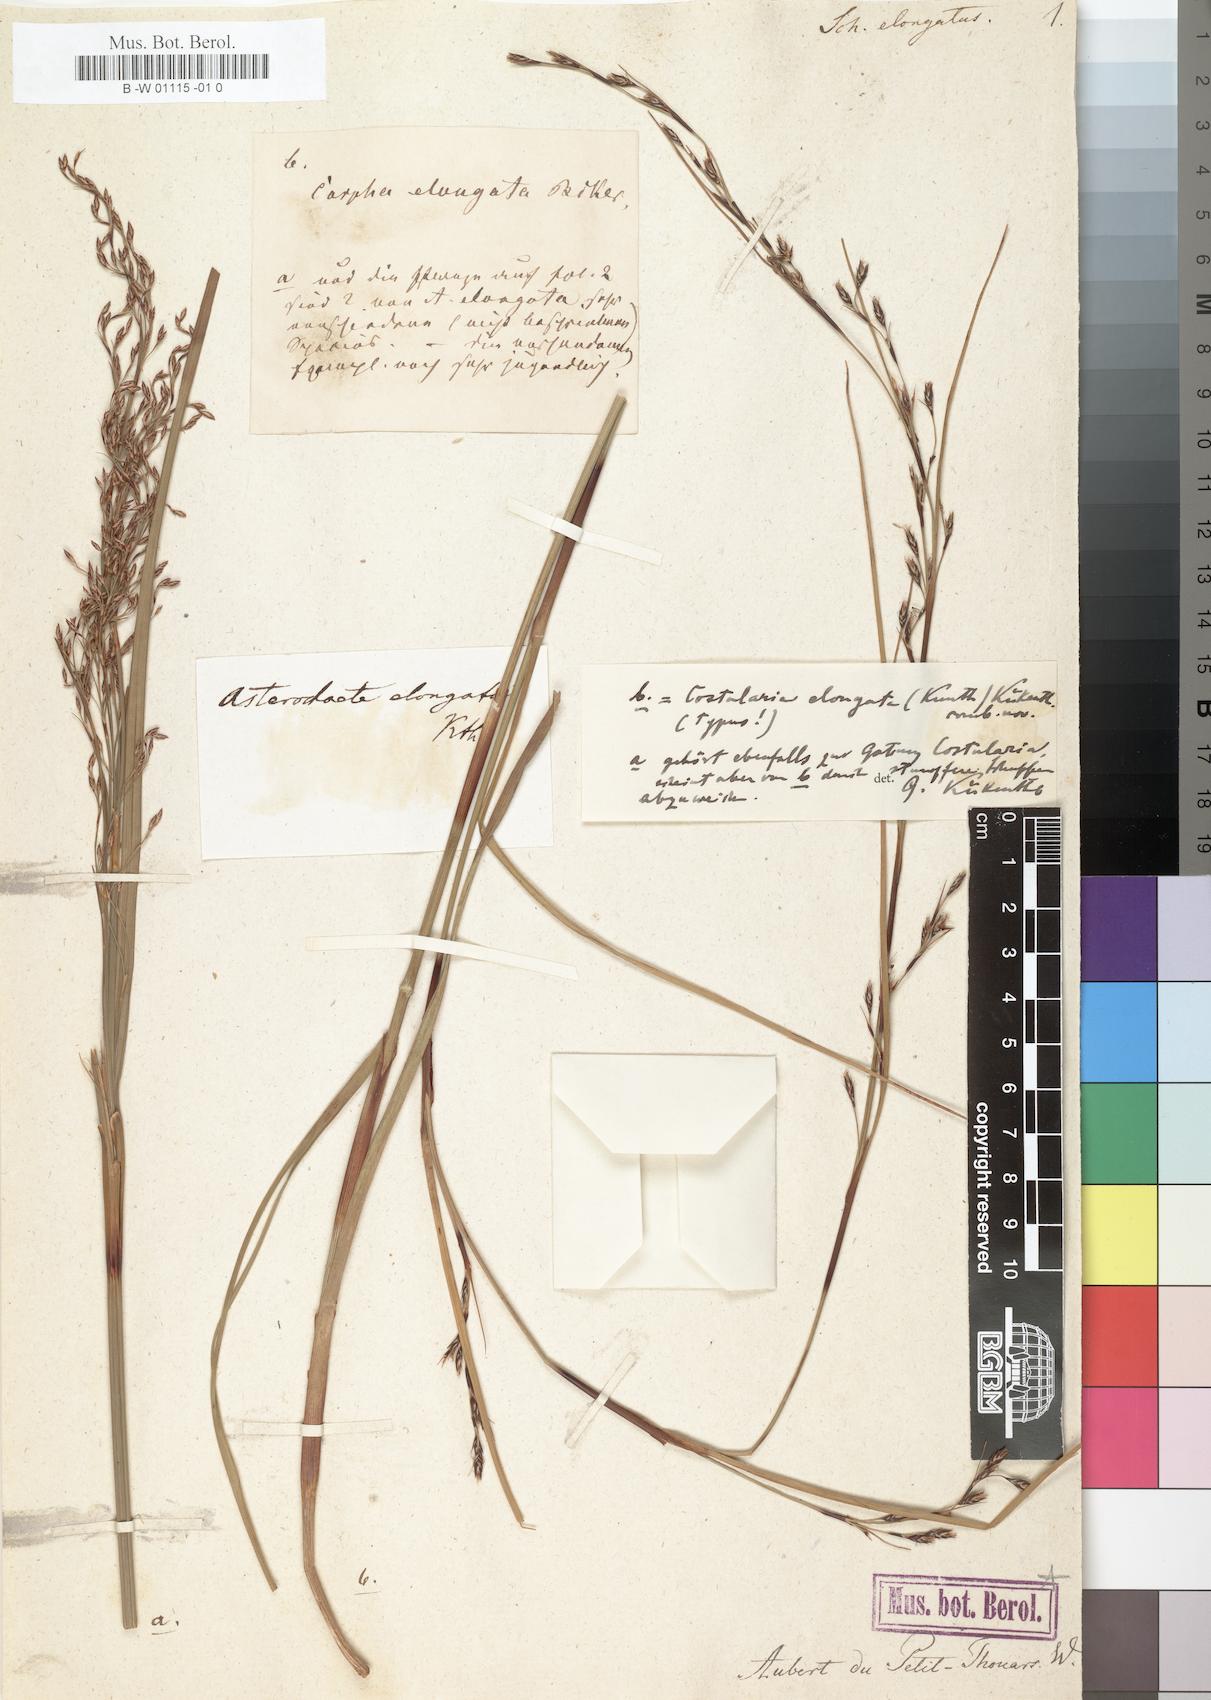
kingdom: Plantae
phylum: Tracheophyta
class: Liliopsida
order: Poales
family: Cyperaceae
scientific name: Cyperaceae
